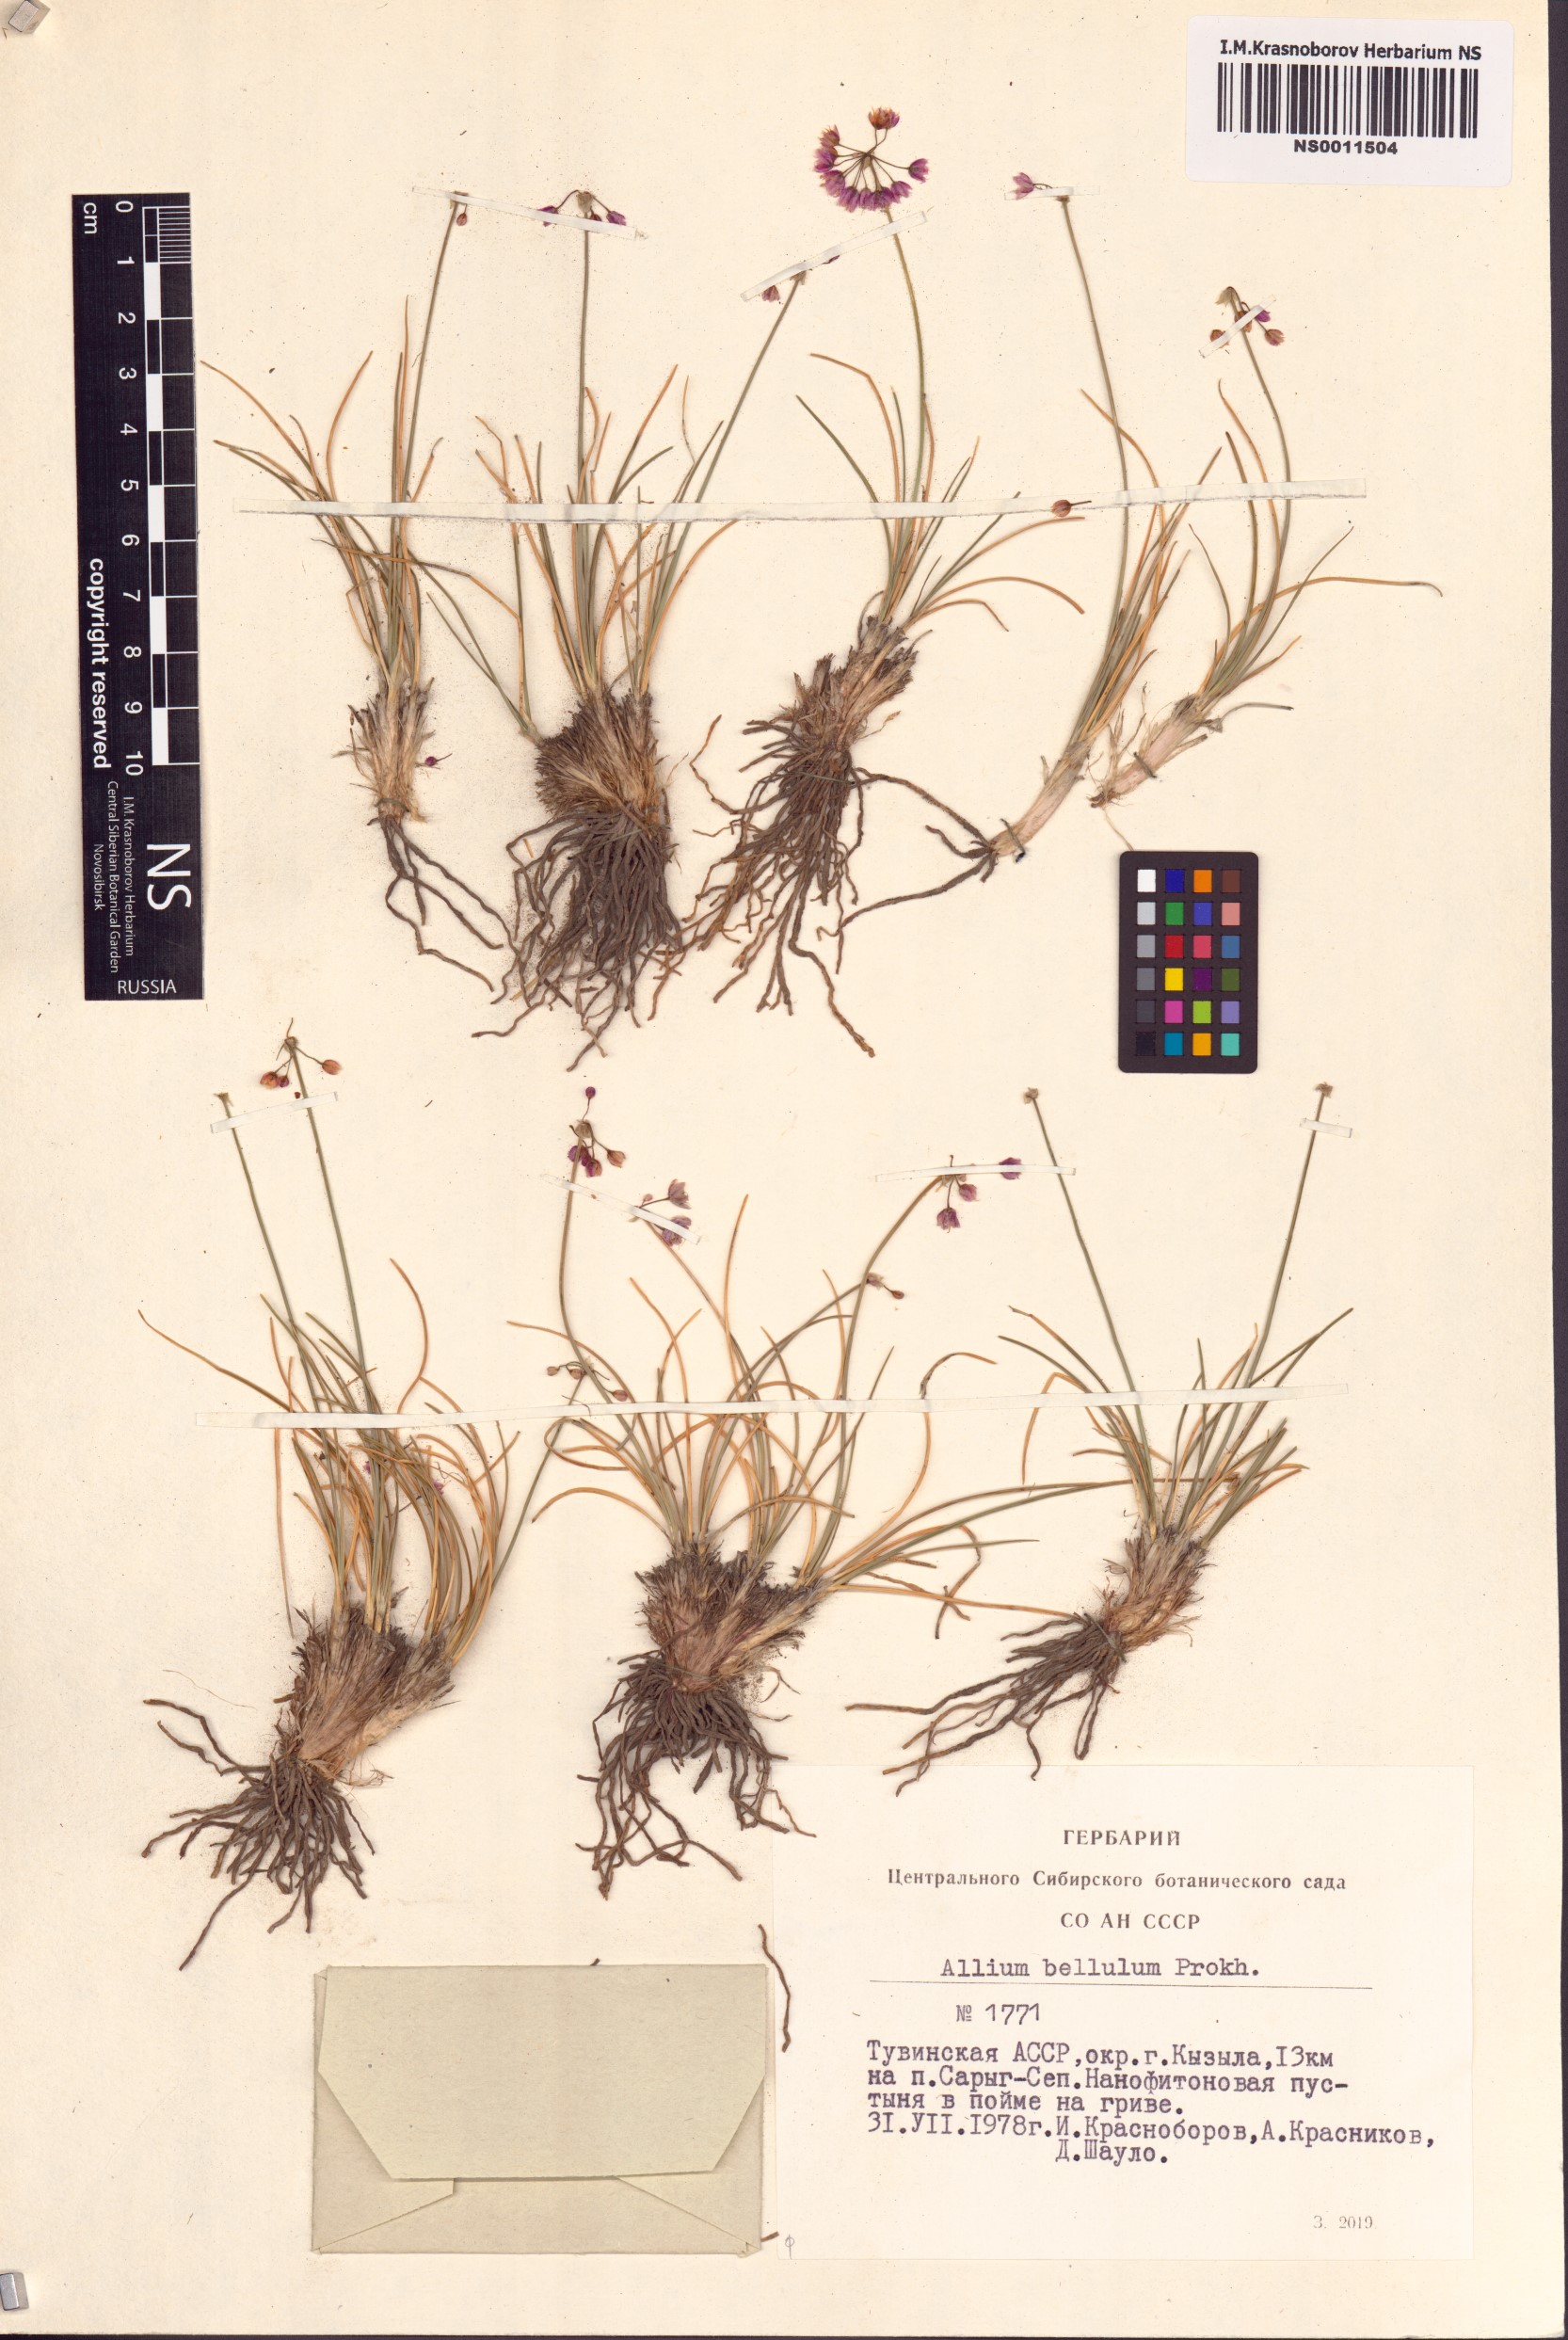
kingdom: Plantae
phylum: Tracheophyta
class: Liliopsida
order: Asparagales
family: Amaryllidaceae
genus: Allium
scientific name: Allium bellulum
